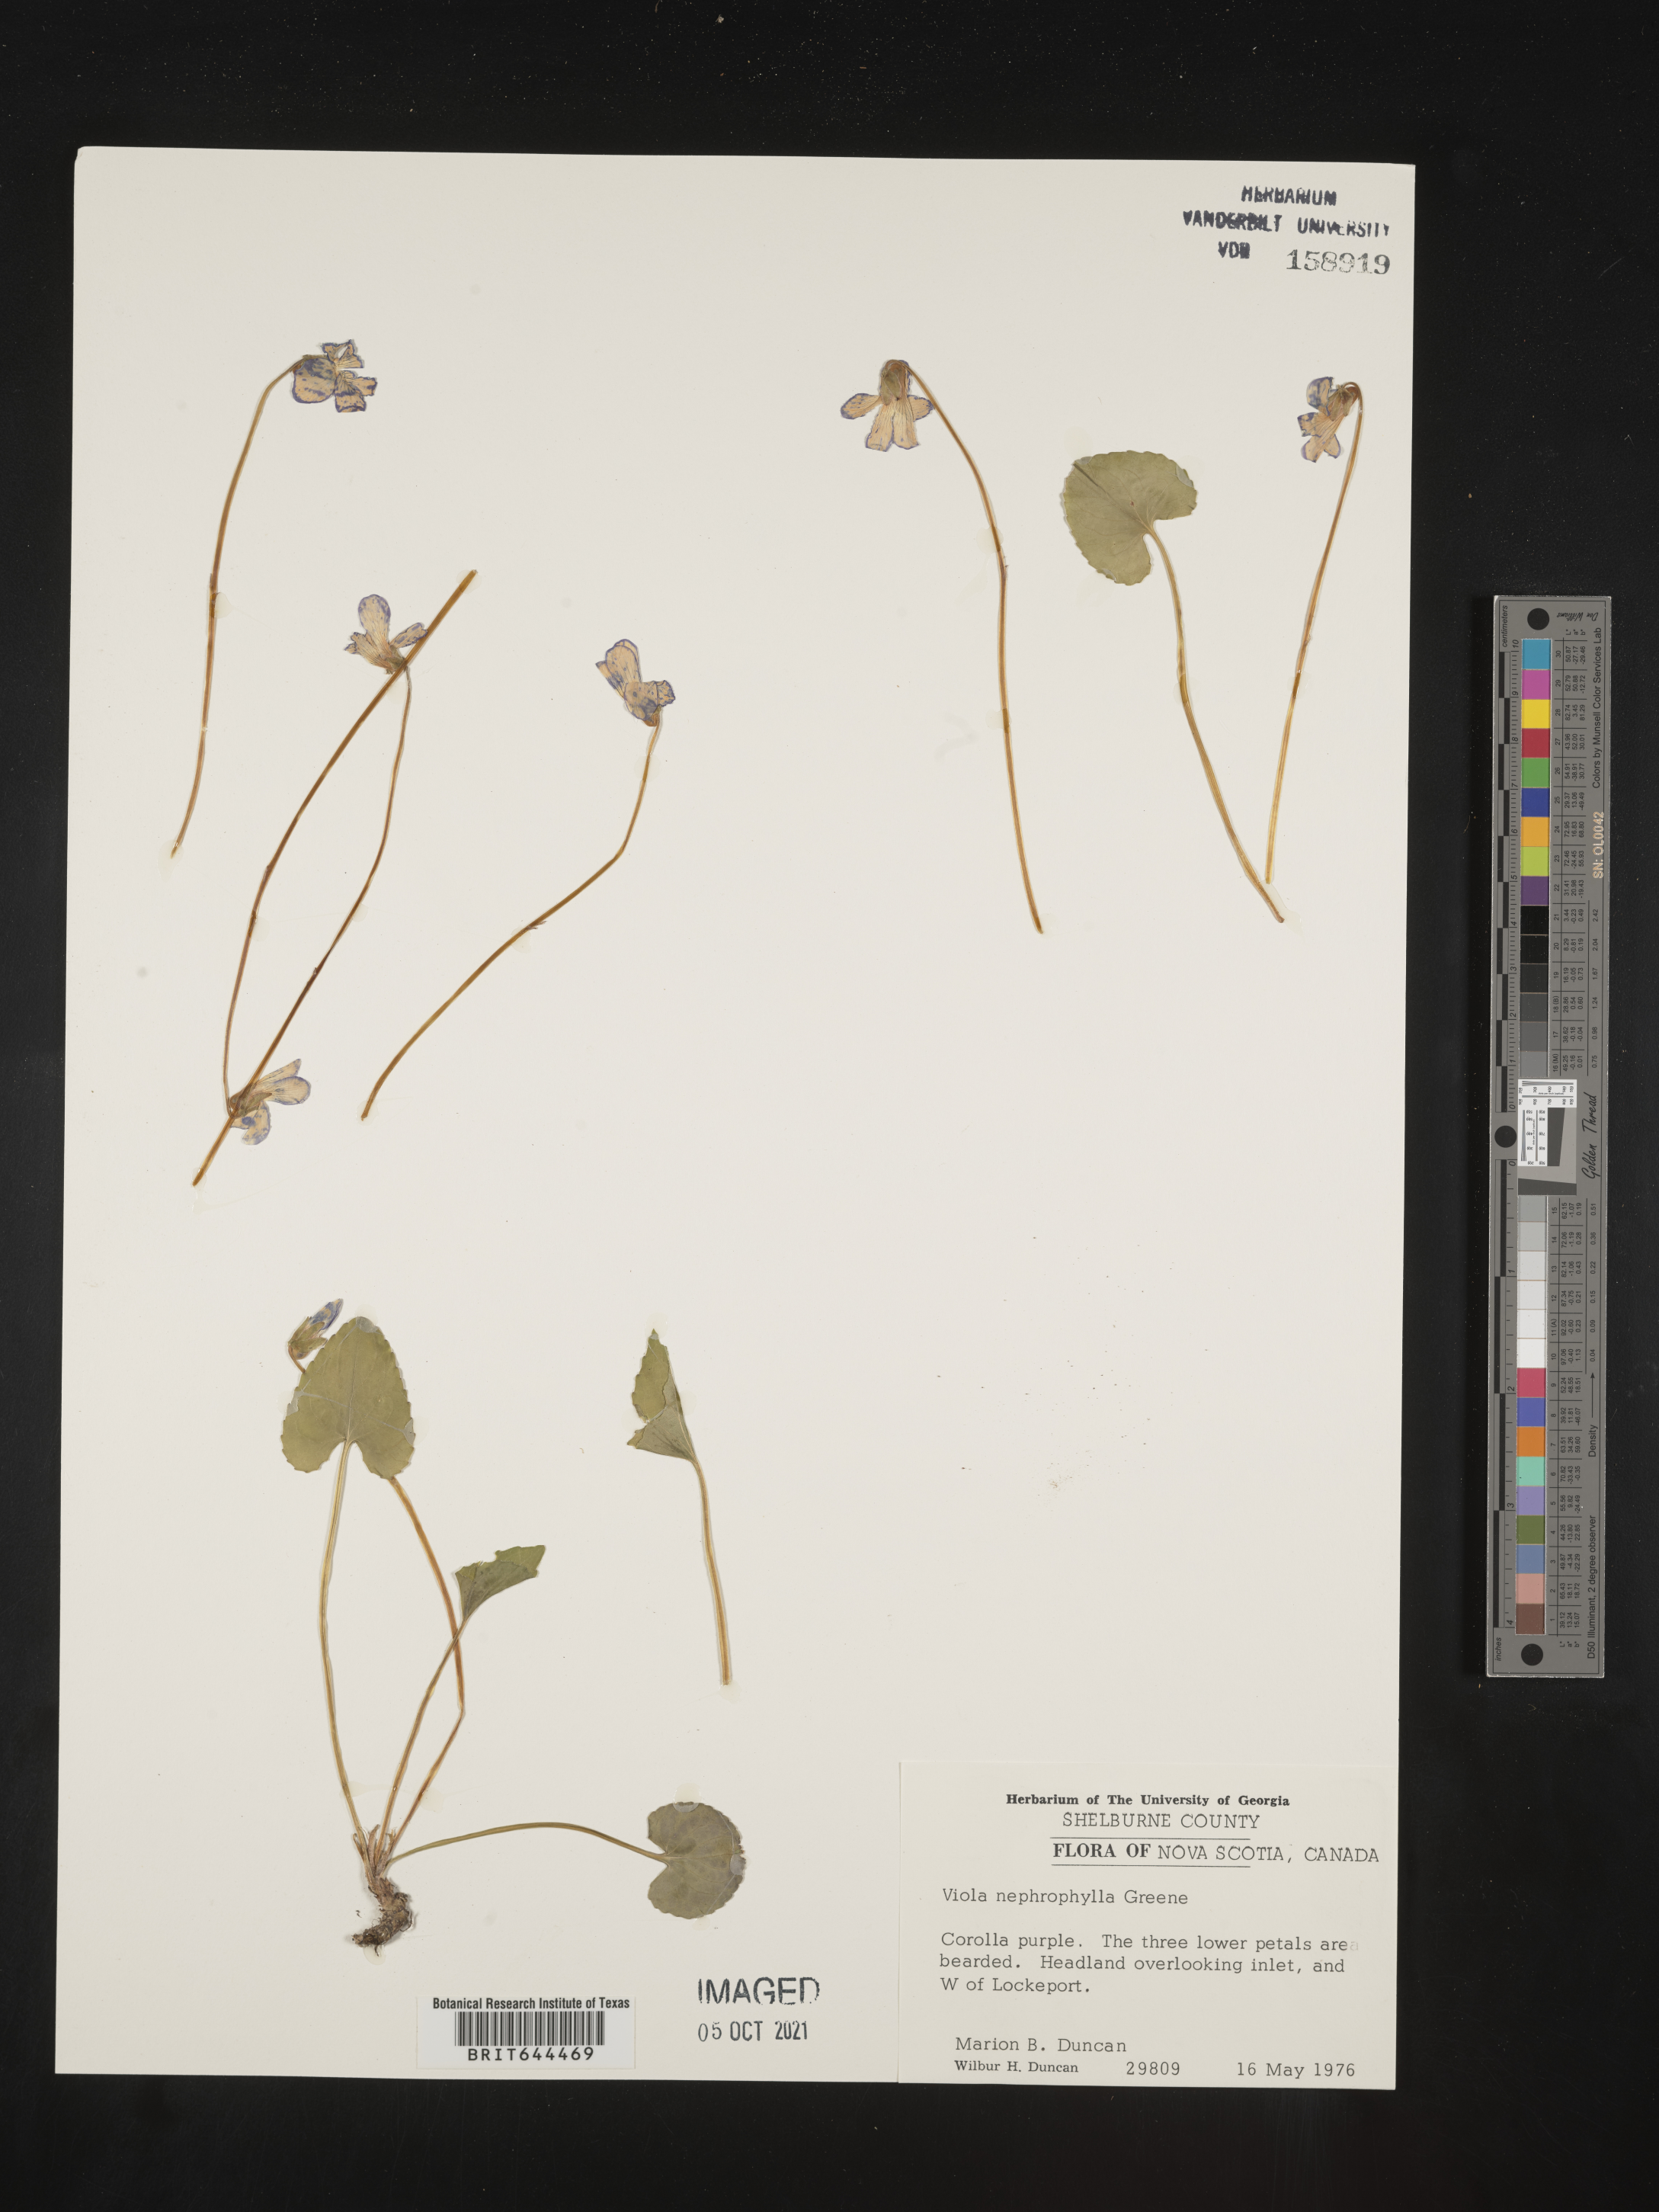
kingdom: Plantae
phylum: Tracheophyta
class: Magnoliopsida
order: Malpighiales
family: Violaceae
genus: Viola
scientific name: Viola
